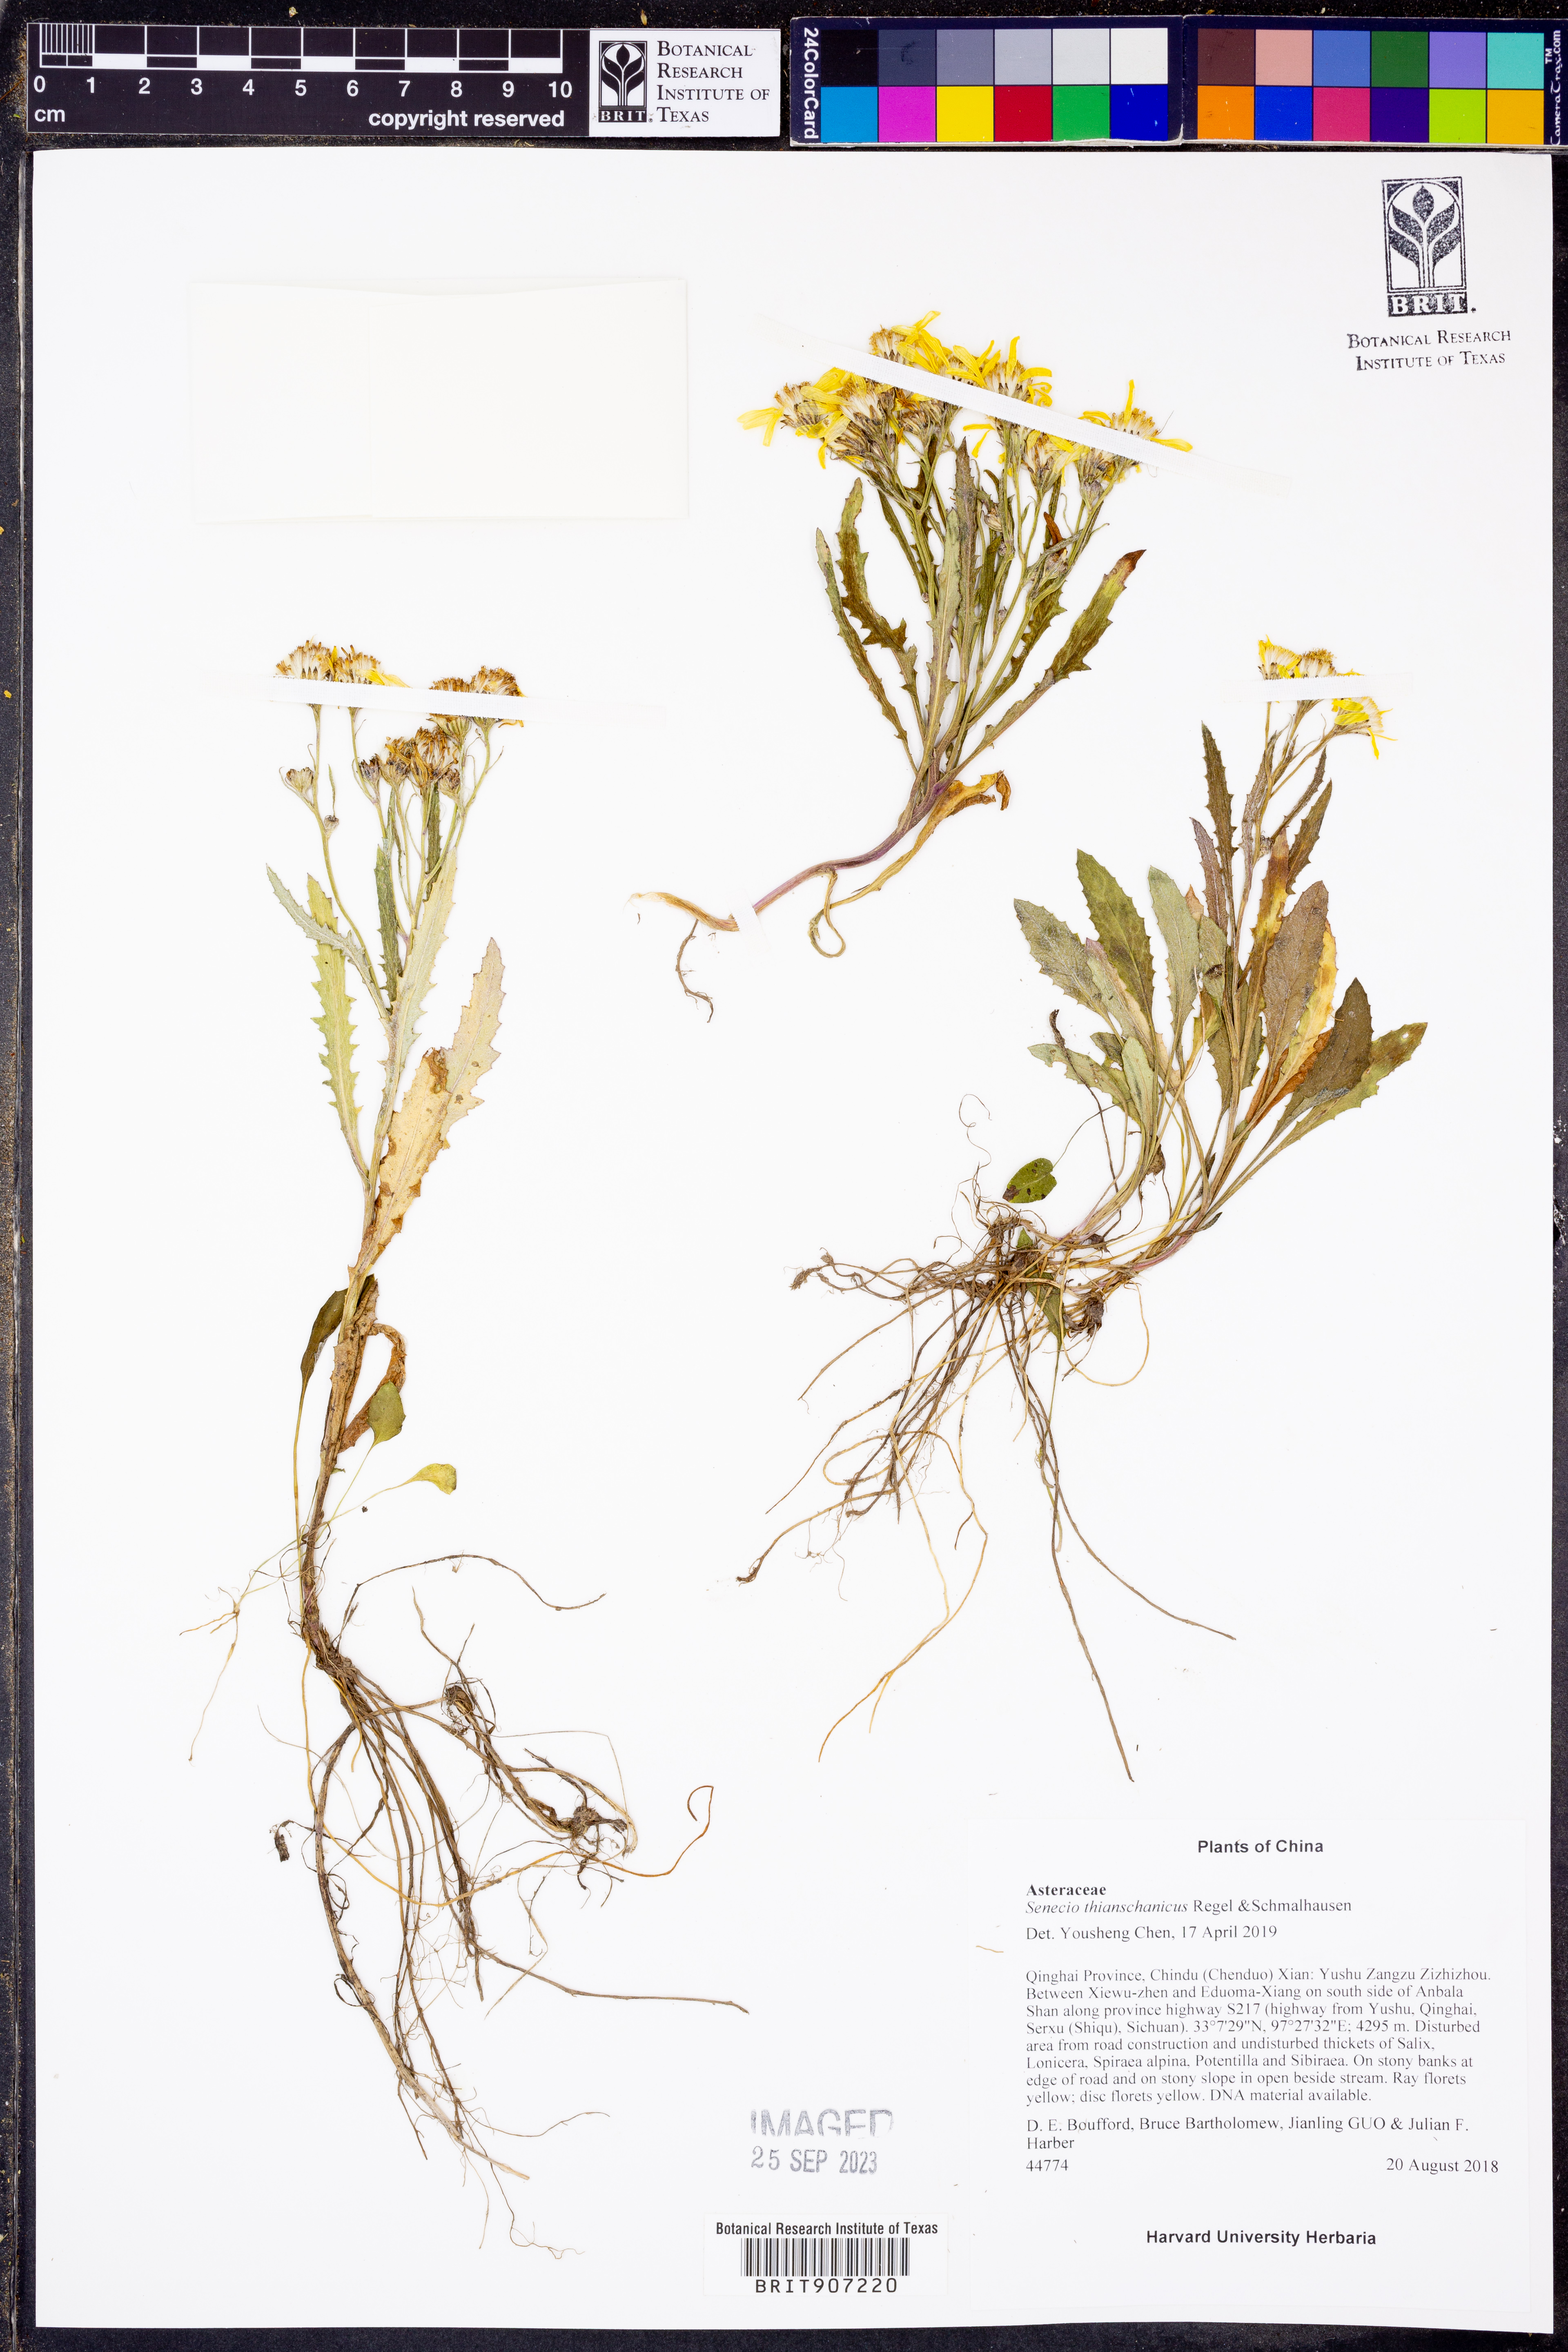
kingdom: Plantae
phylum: Tracheophyta
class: Magnoliopsida
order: Asterales
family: Asteraceae
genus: Senecio
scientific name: Senecio thianschanicus
